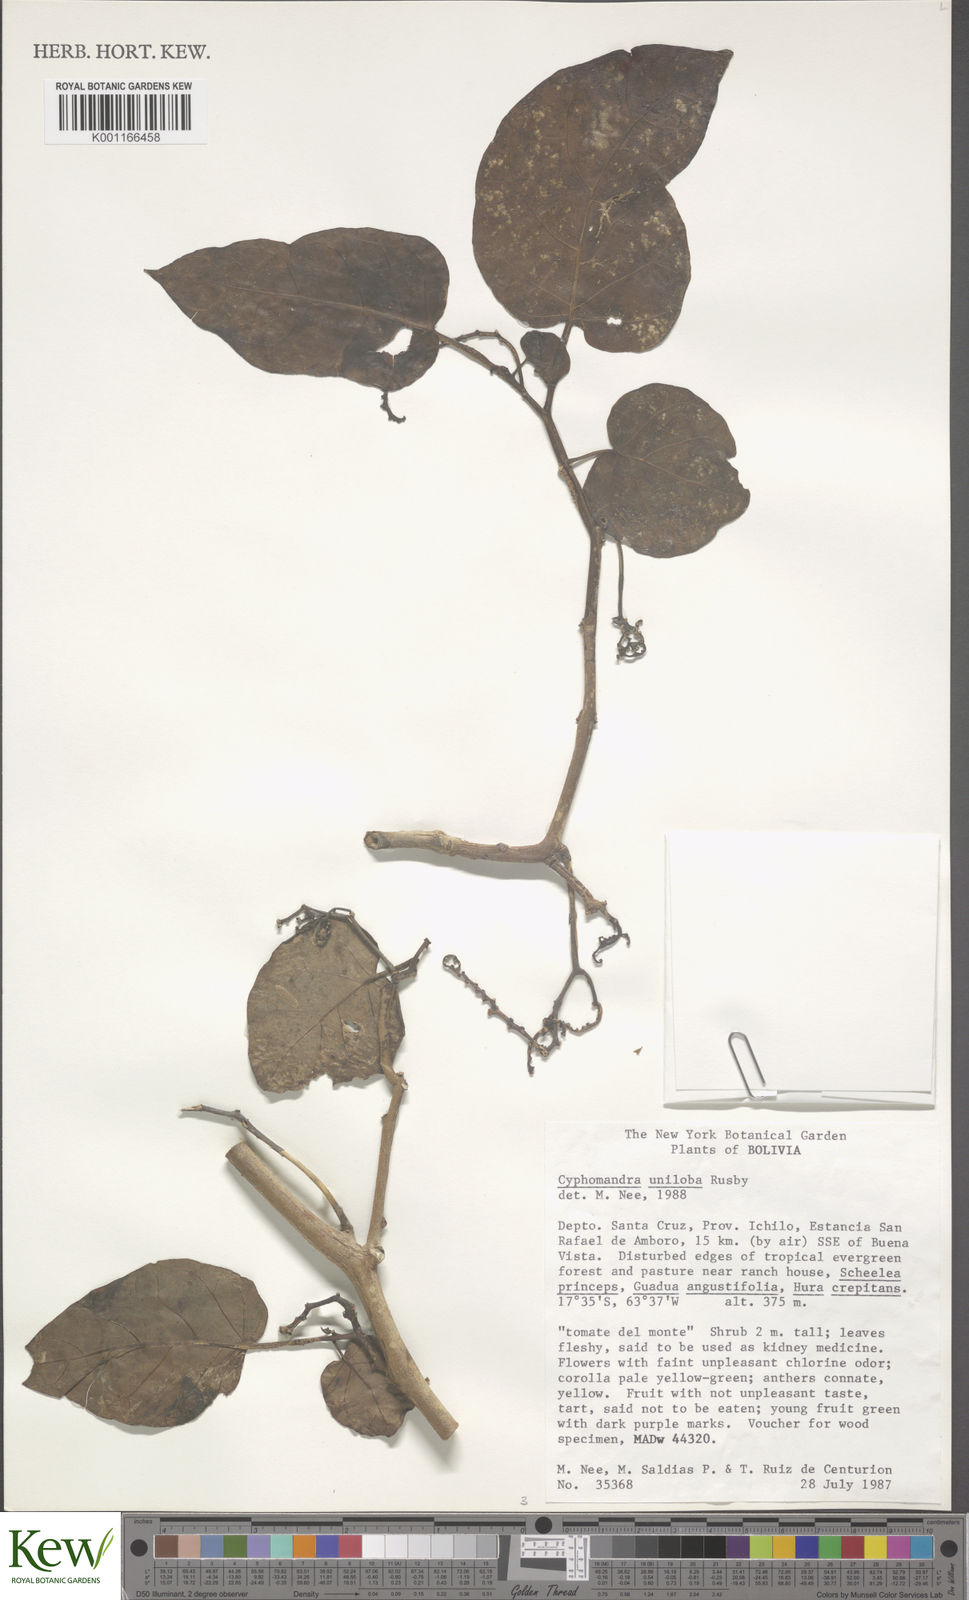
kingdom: Plantae
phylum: Tracheophyta
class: Magnoliopsida
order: Solanales
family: Solanaceae
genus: Solanum
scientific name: Solanum unilobum
